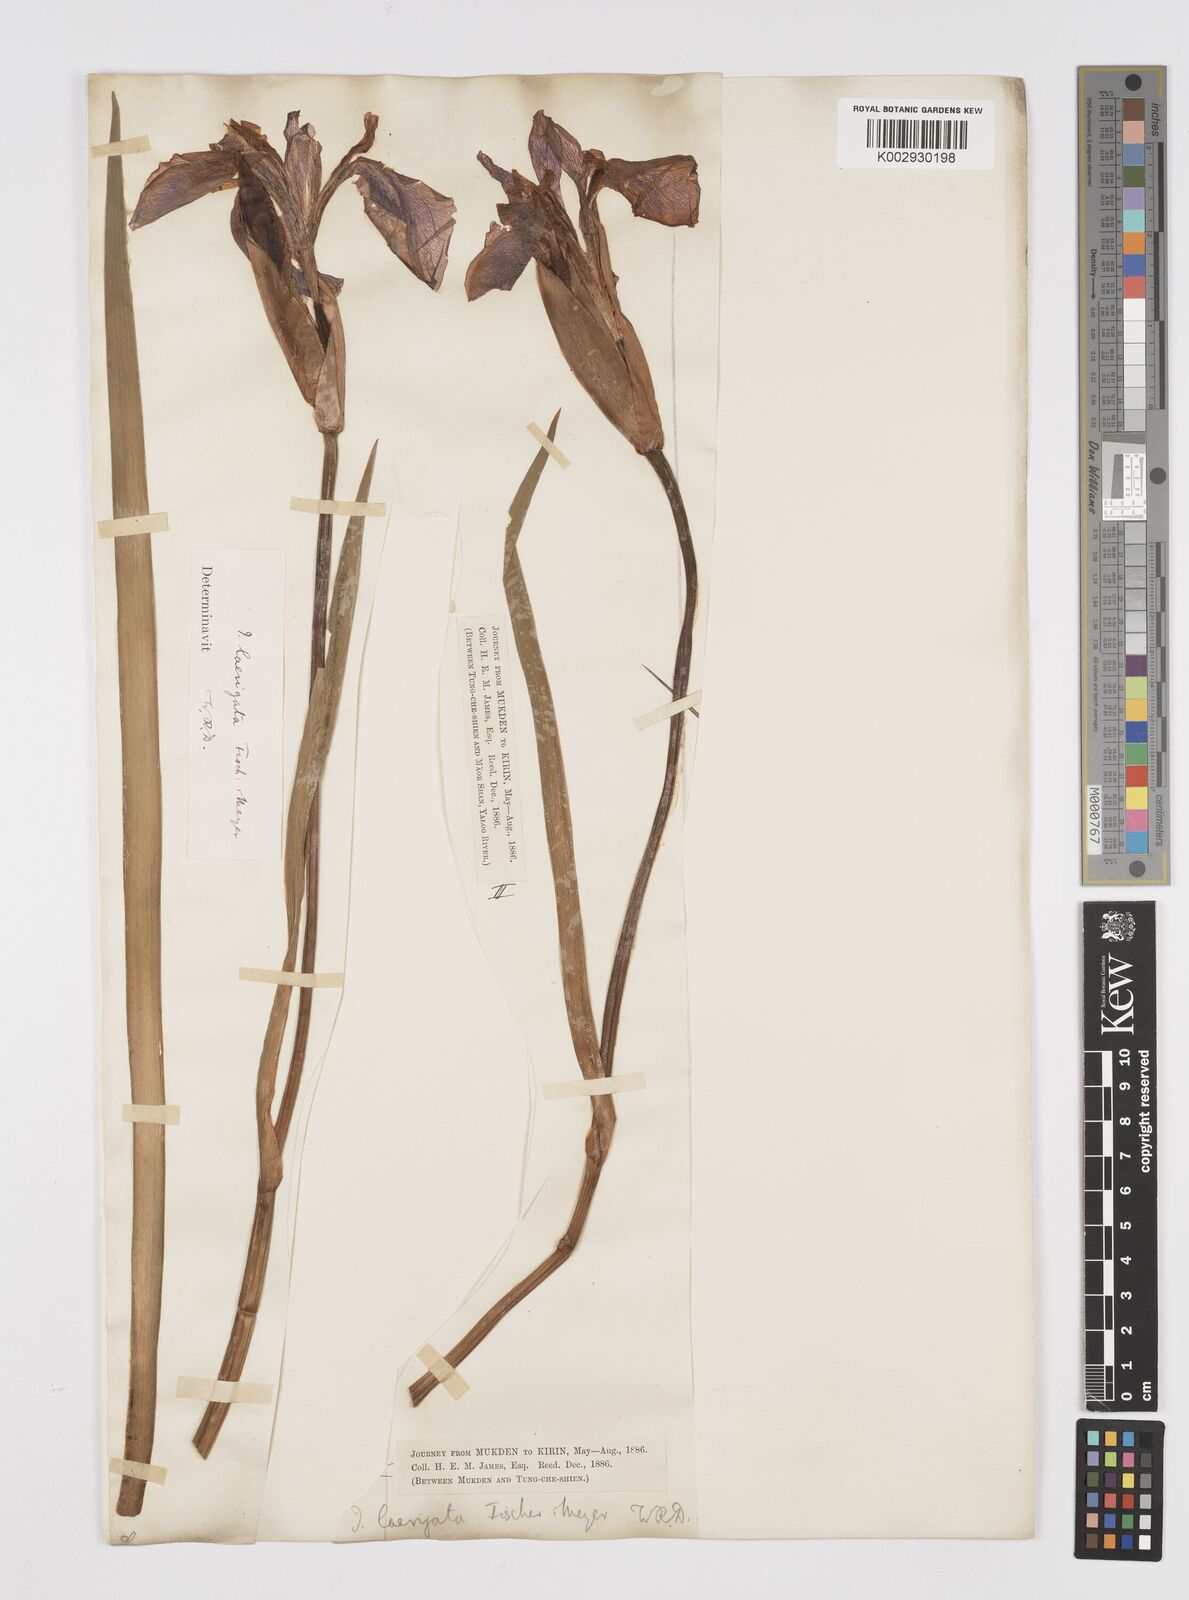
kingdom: Plantae
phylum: Tracheophyta
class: Liliopsida
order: Asparagales
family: Iridaceae
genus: Iris
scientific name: Iris laevigata
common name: Japanese iris
